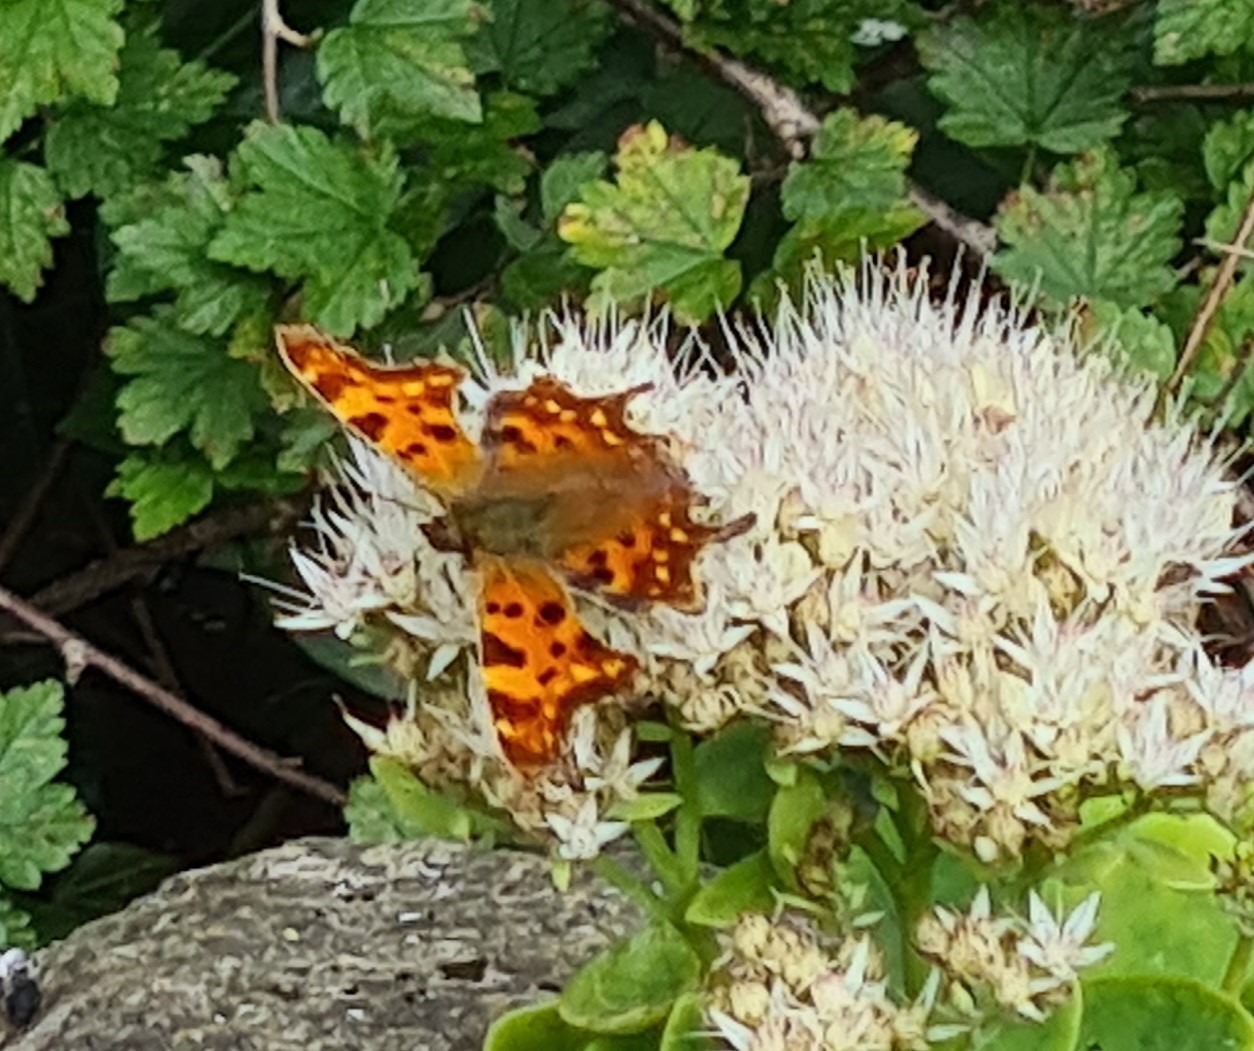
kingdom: Animalia
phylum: Arthropoda
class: Insecta
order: Lepidoptera
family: Nymphalidae
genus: Polygonia
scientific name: Polygonia c-album
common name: Det hvide C
